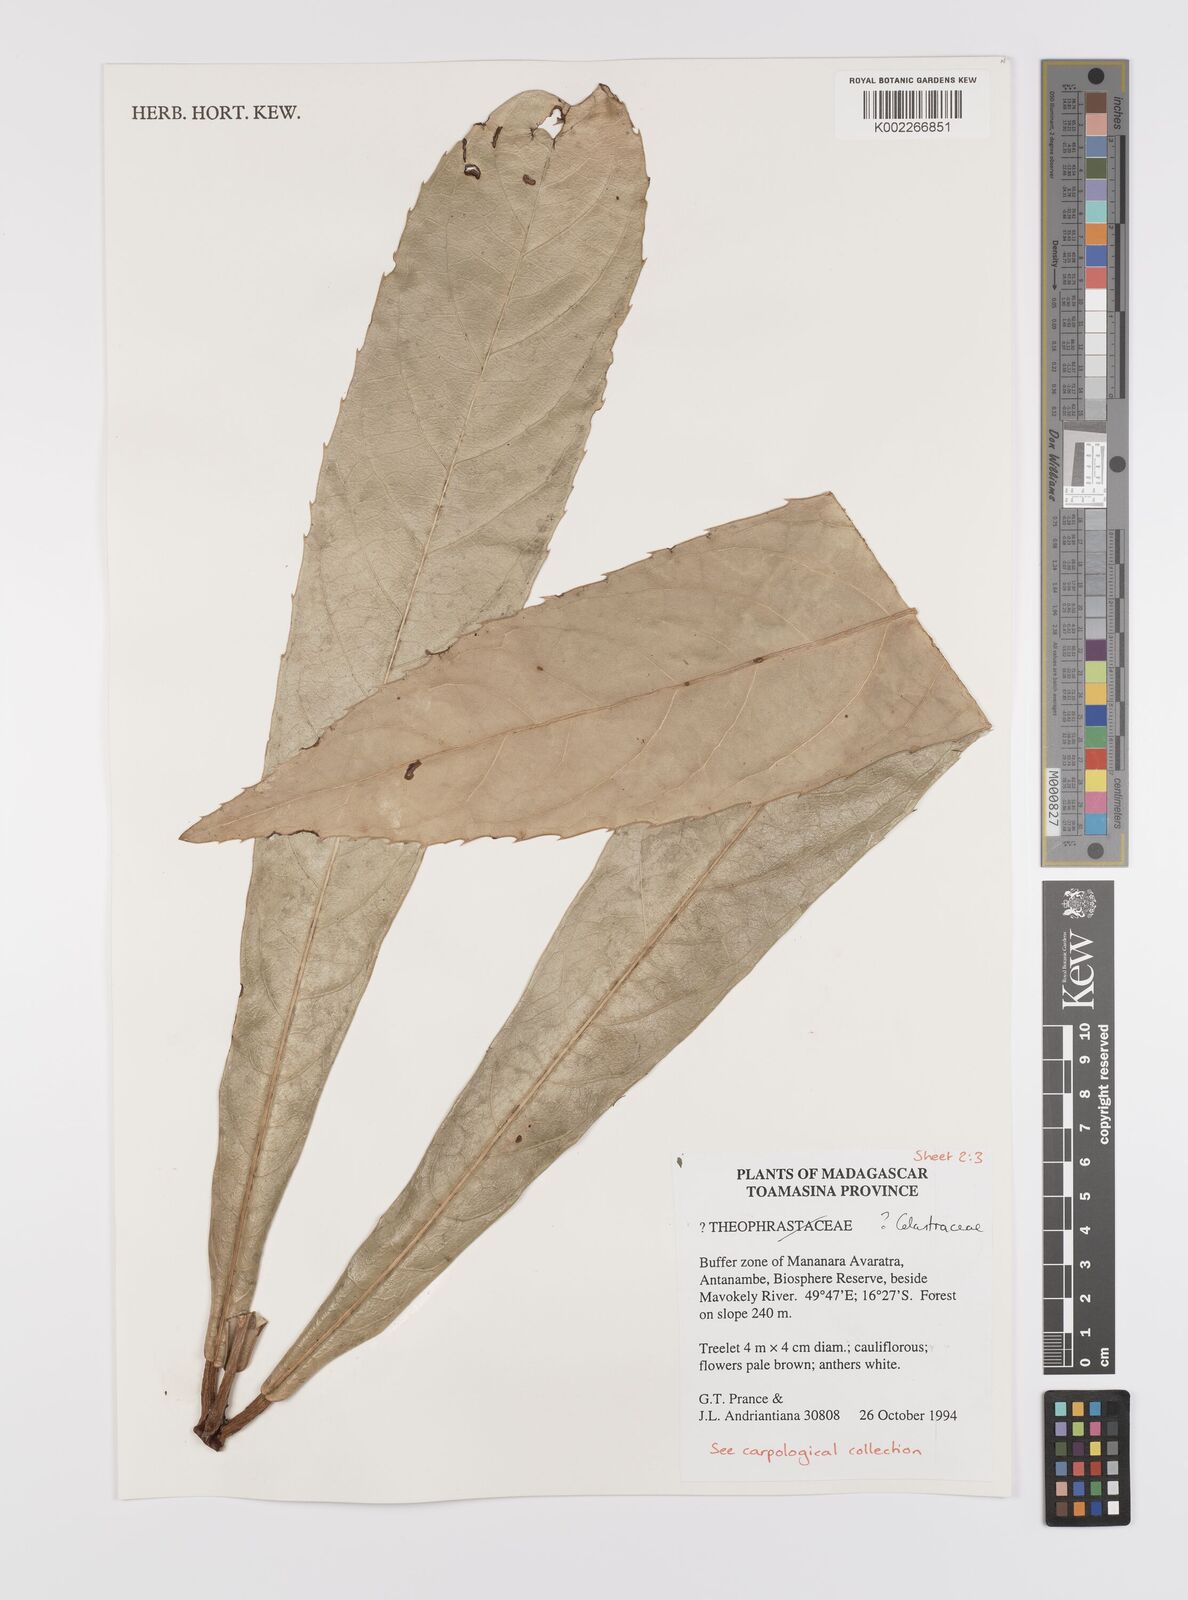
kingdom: Plantae
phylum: Tracheophyta
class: Magnoliopsida
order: Celastrales
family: Celastraceae
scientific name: Celastraceae
